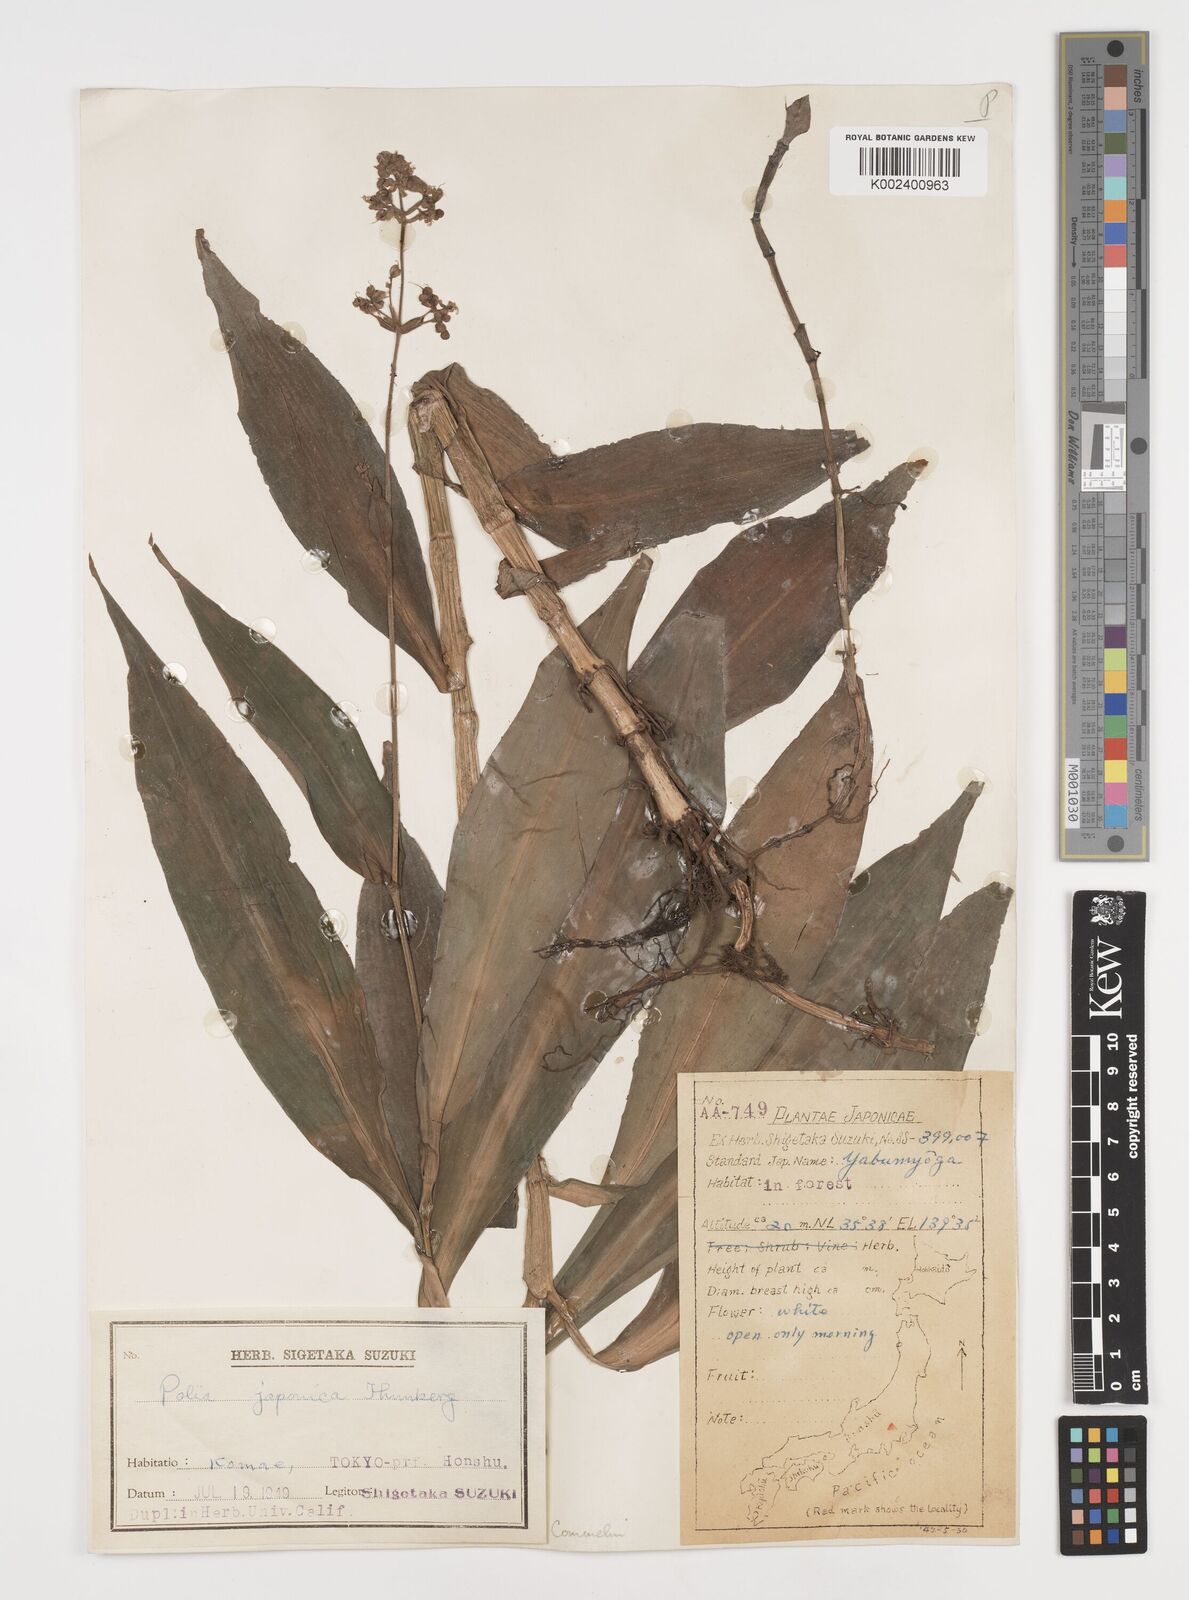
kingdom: Plantae
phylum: Tracheophyta
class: Liliopsida
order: Commelinales
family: Commelinaceae
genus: Pollia
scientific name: Pollia japonica
